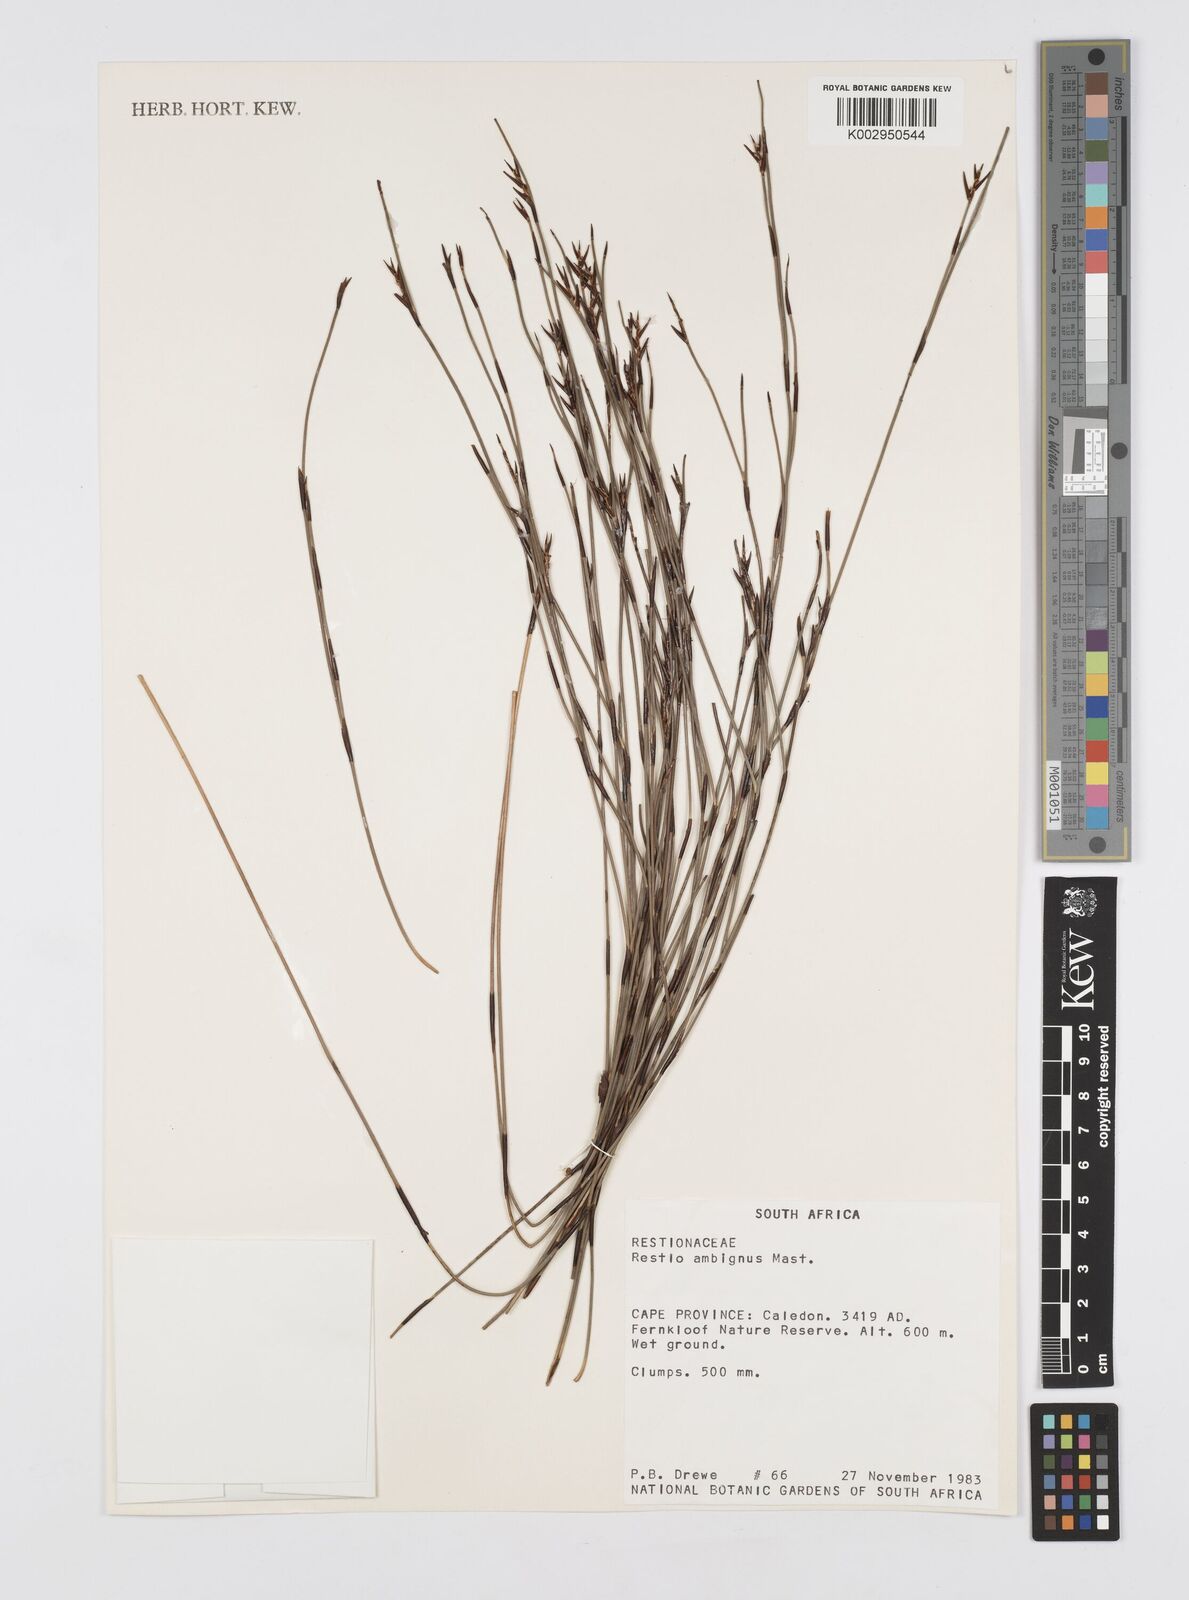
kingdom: Plantae
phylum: Tracheophyta
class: Liliopsida
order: Poales
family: Restionaceae
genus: Soroveta
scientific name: Soroveta ambigua
